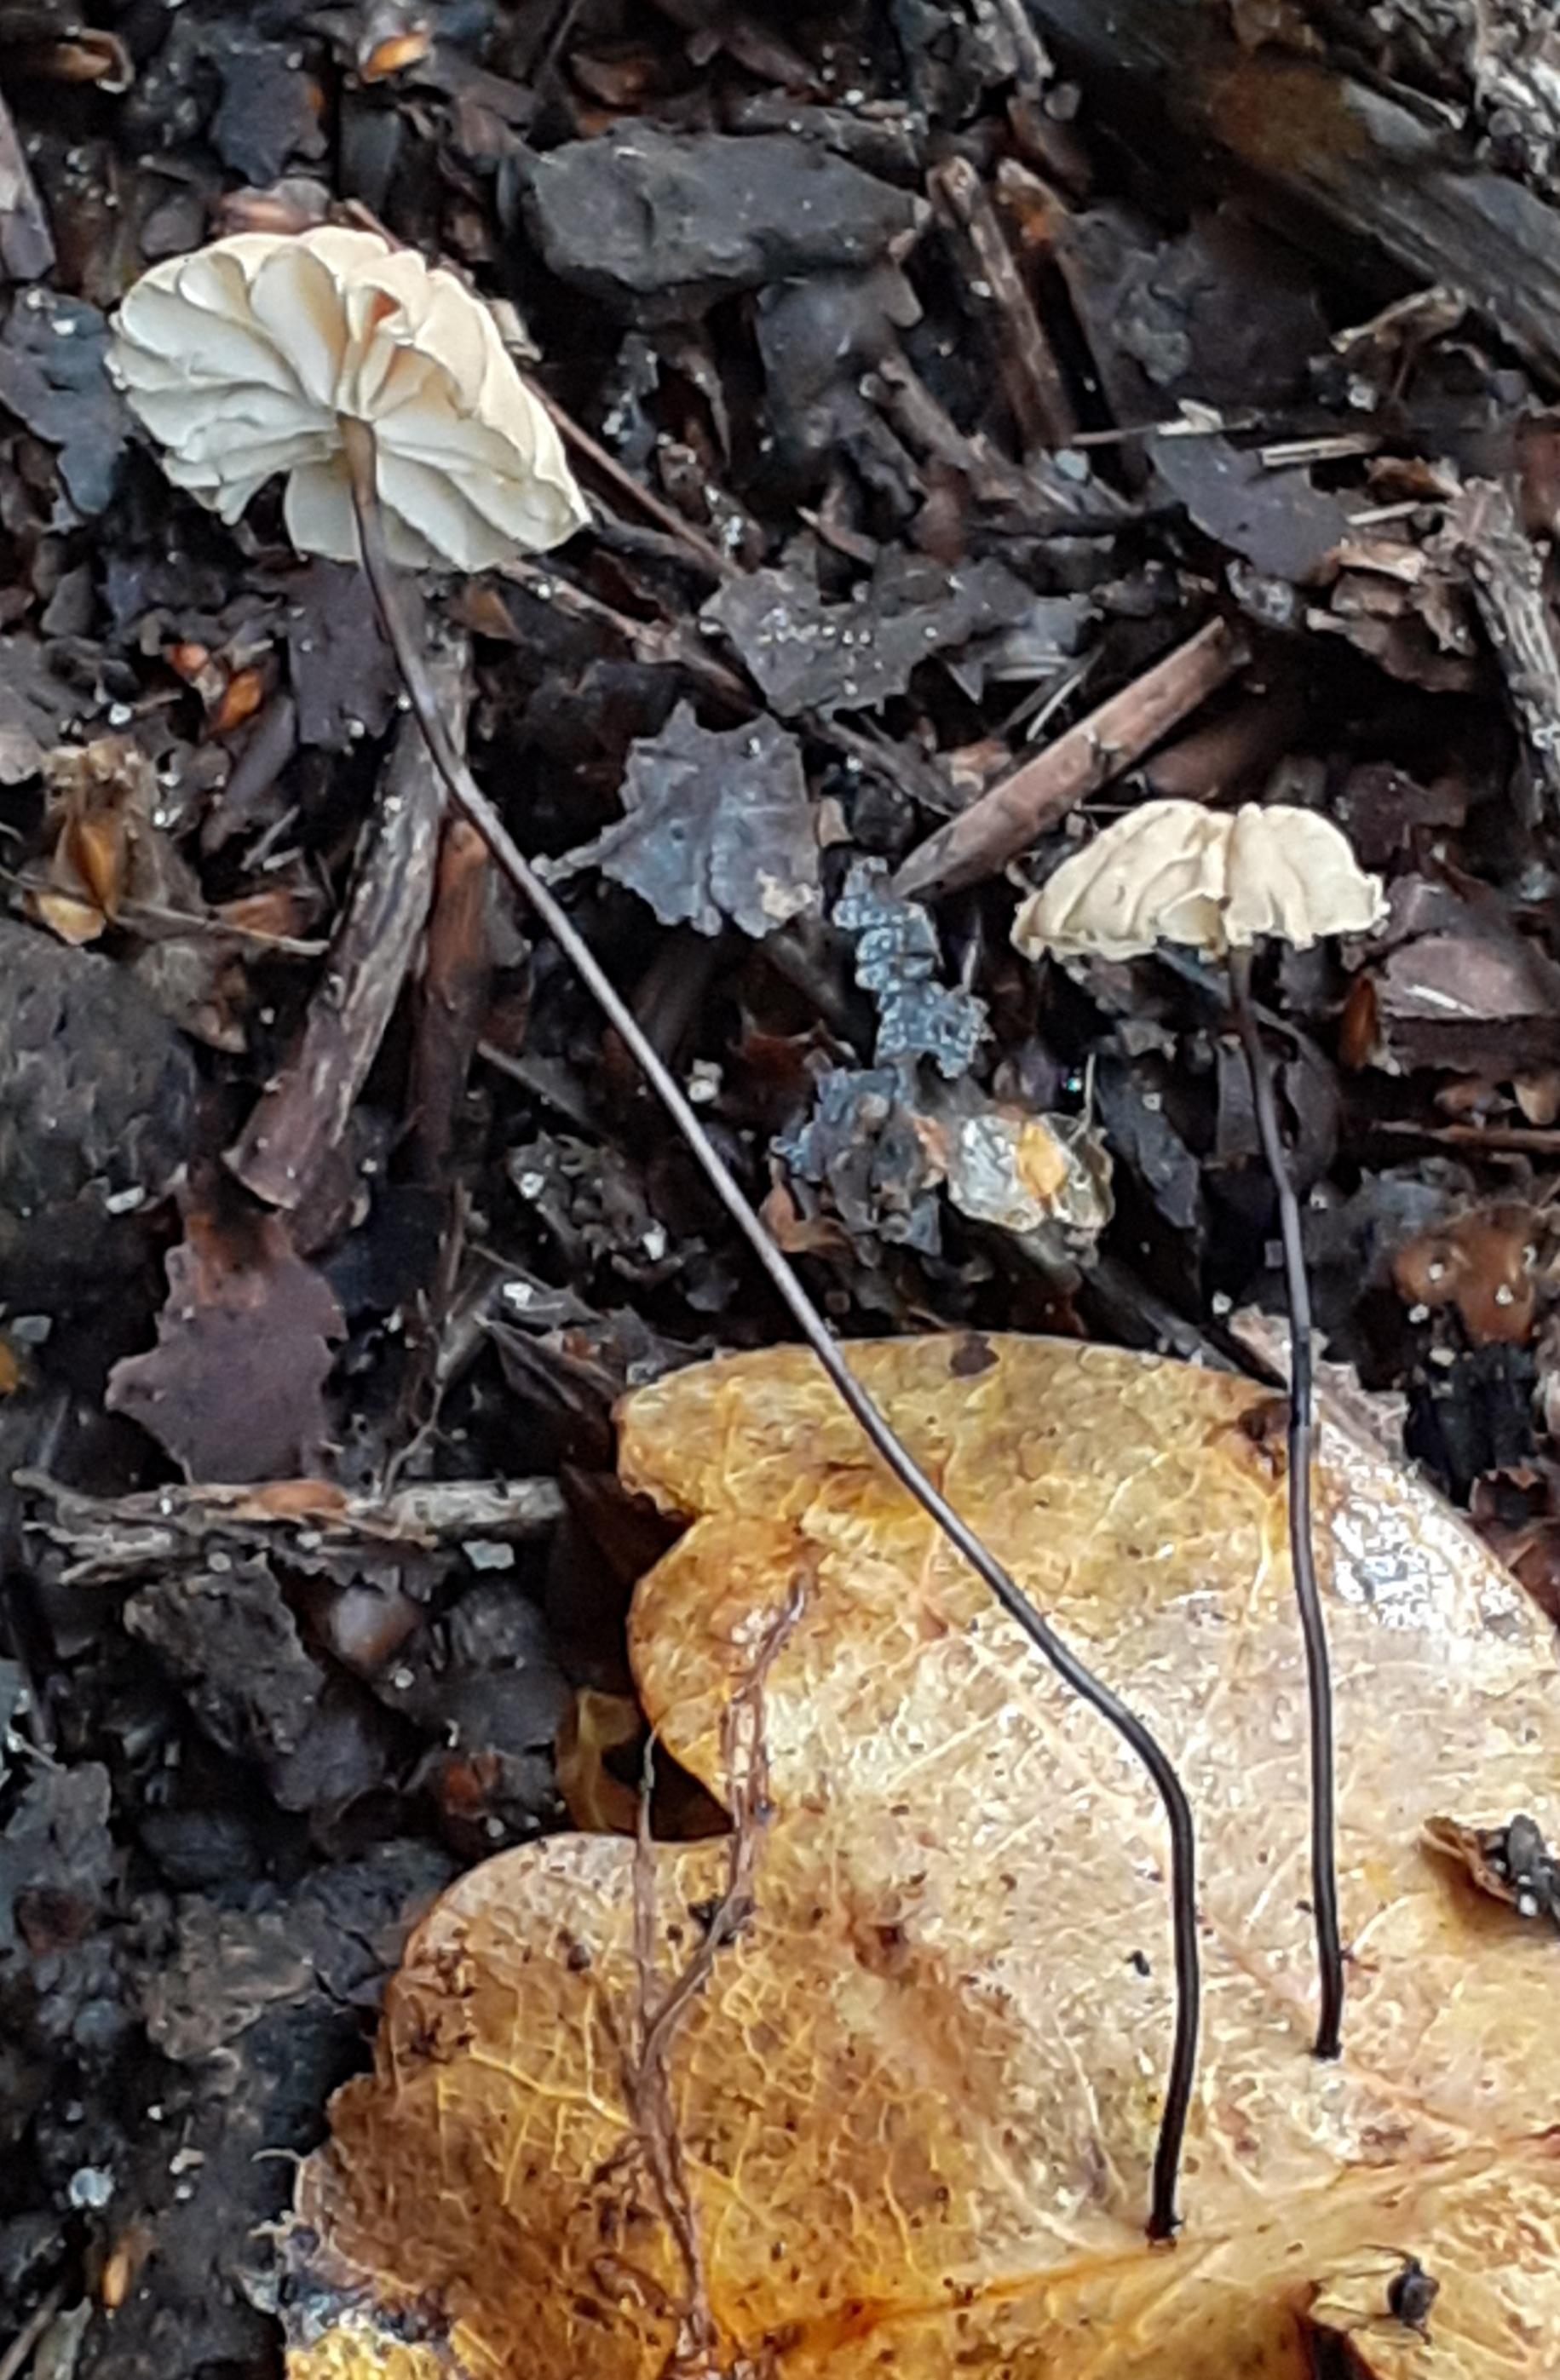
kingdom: Fungi
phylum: Basidiomycota
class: Agaricomycetes
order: Agaricales
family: Marasmiaceae
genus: Marasmius
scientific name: Marasmius bulliardii
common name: furet bruskhat
